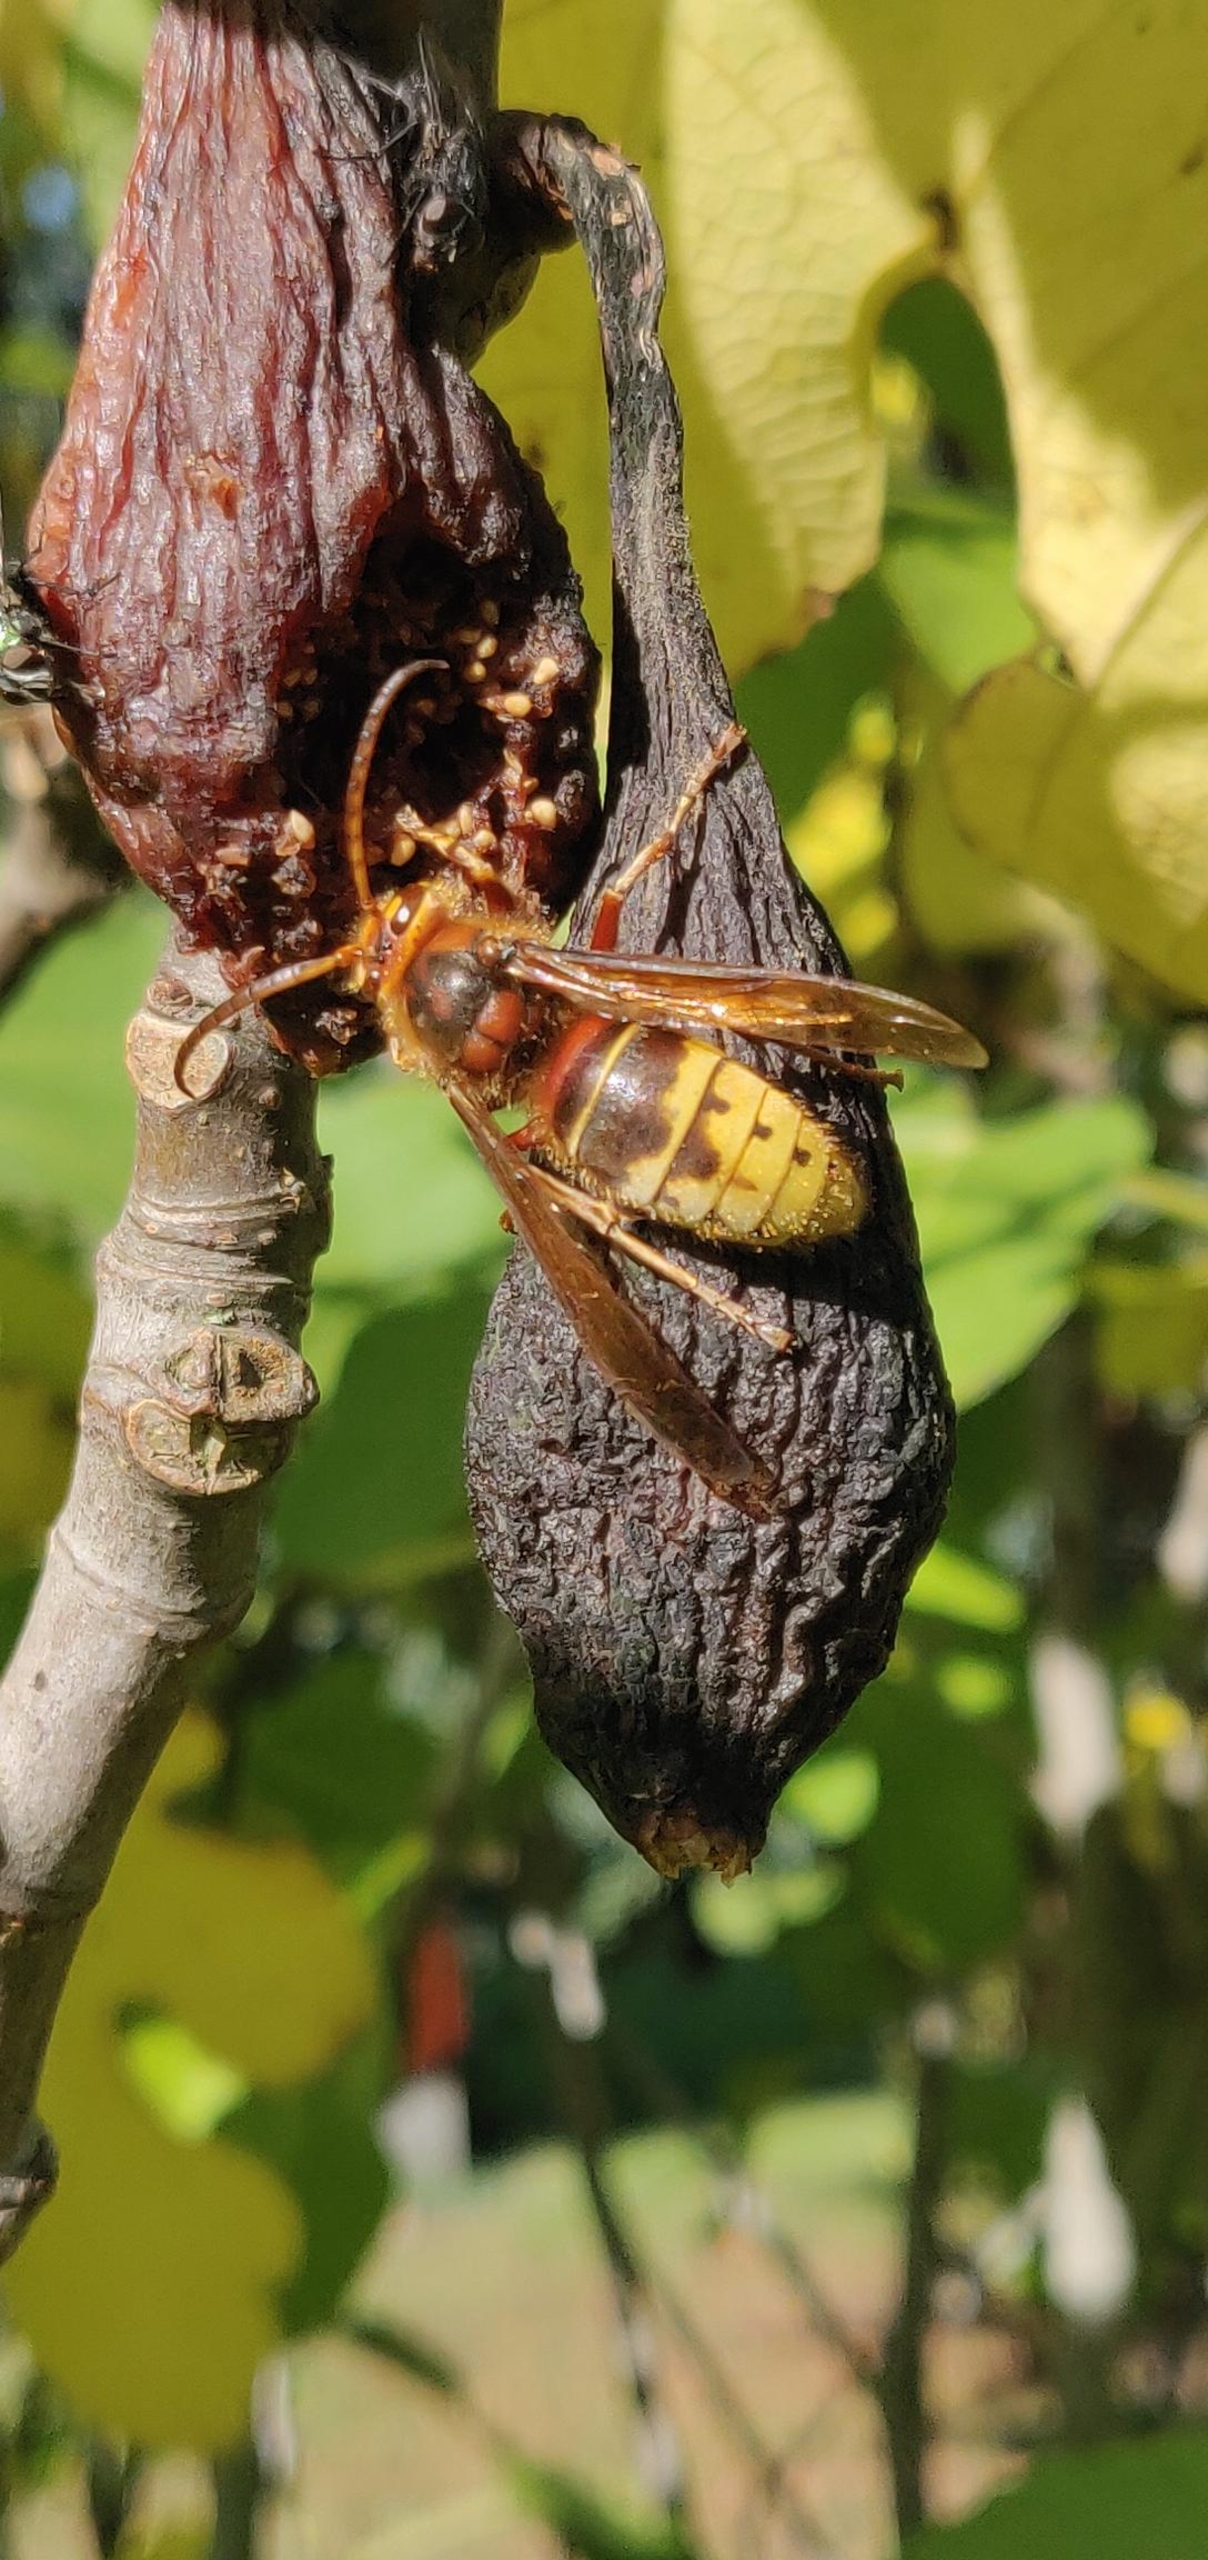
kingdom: Animalia
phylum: Arthropoda
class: Insecta
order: Hymenoptera
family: Vespidae
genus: Vespa
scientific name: Vespa crabro
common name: Stor gedehams
